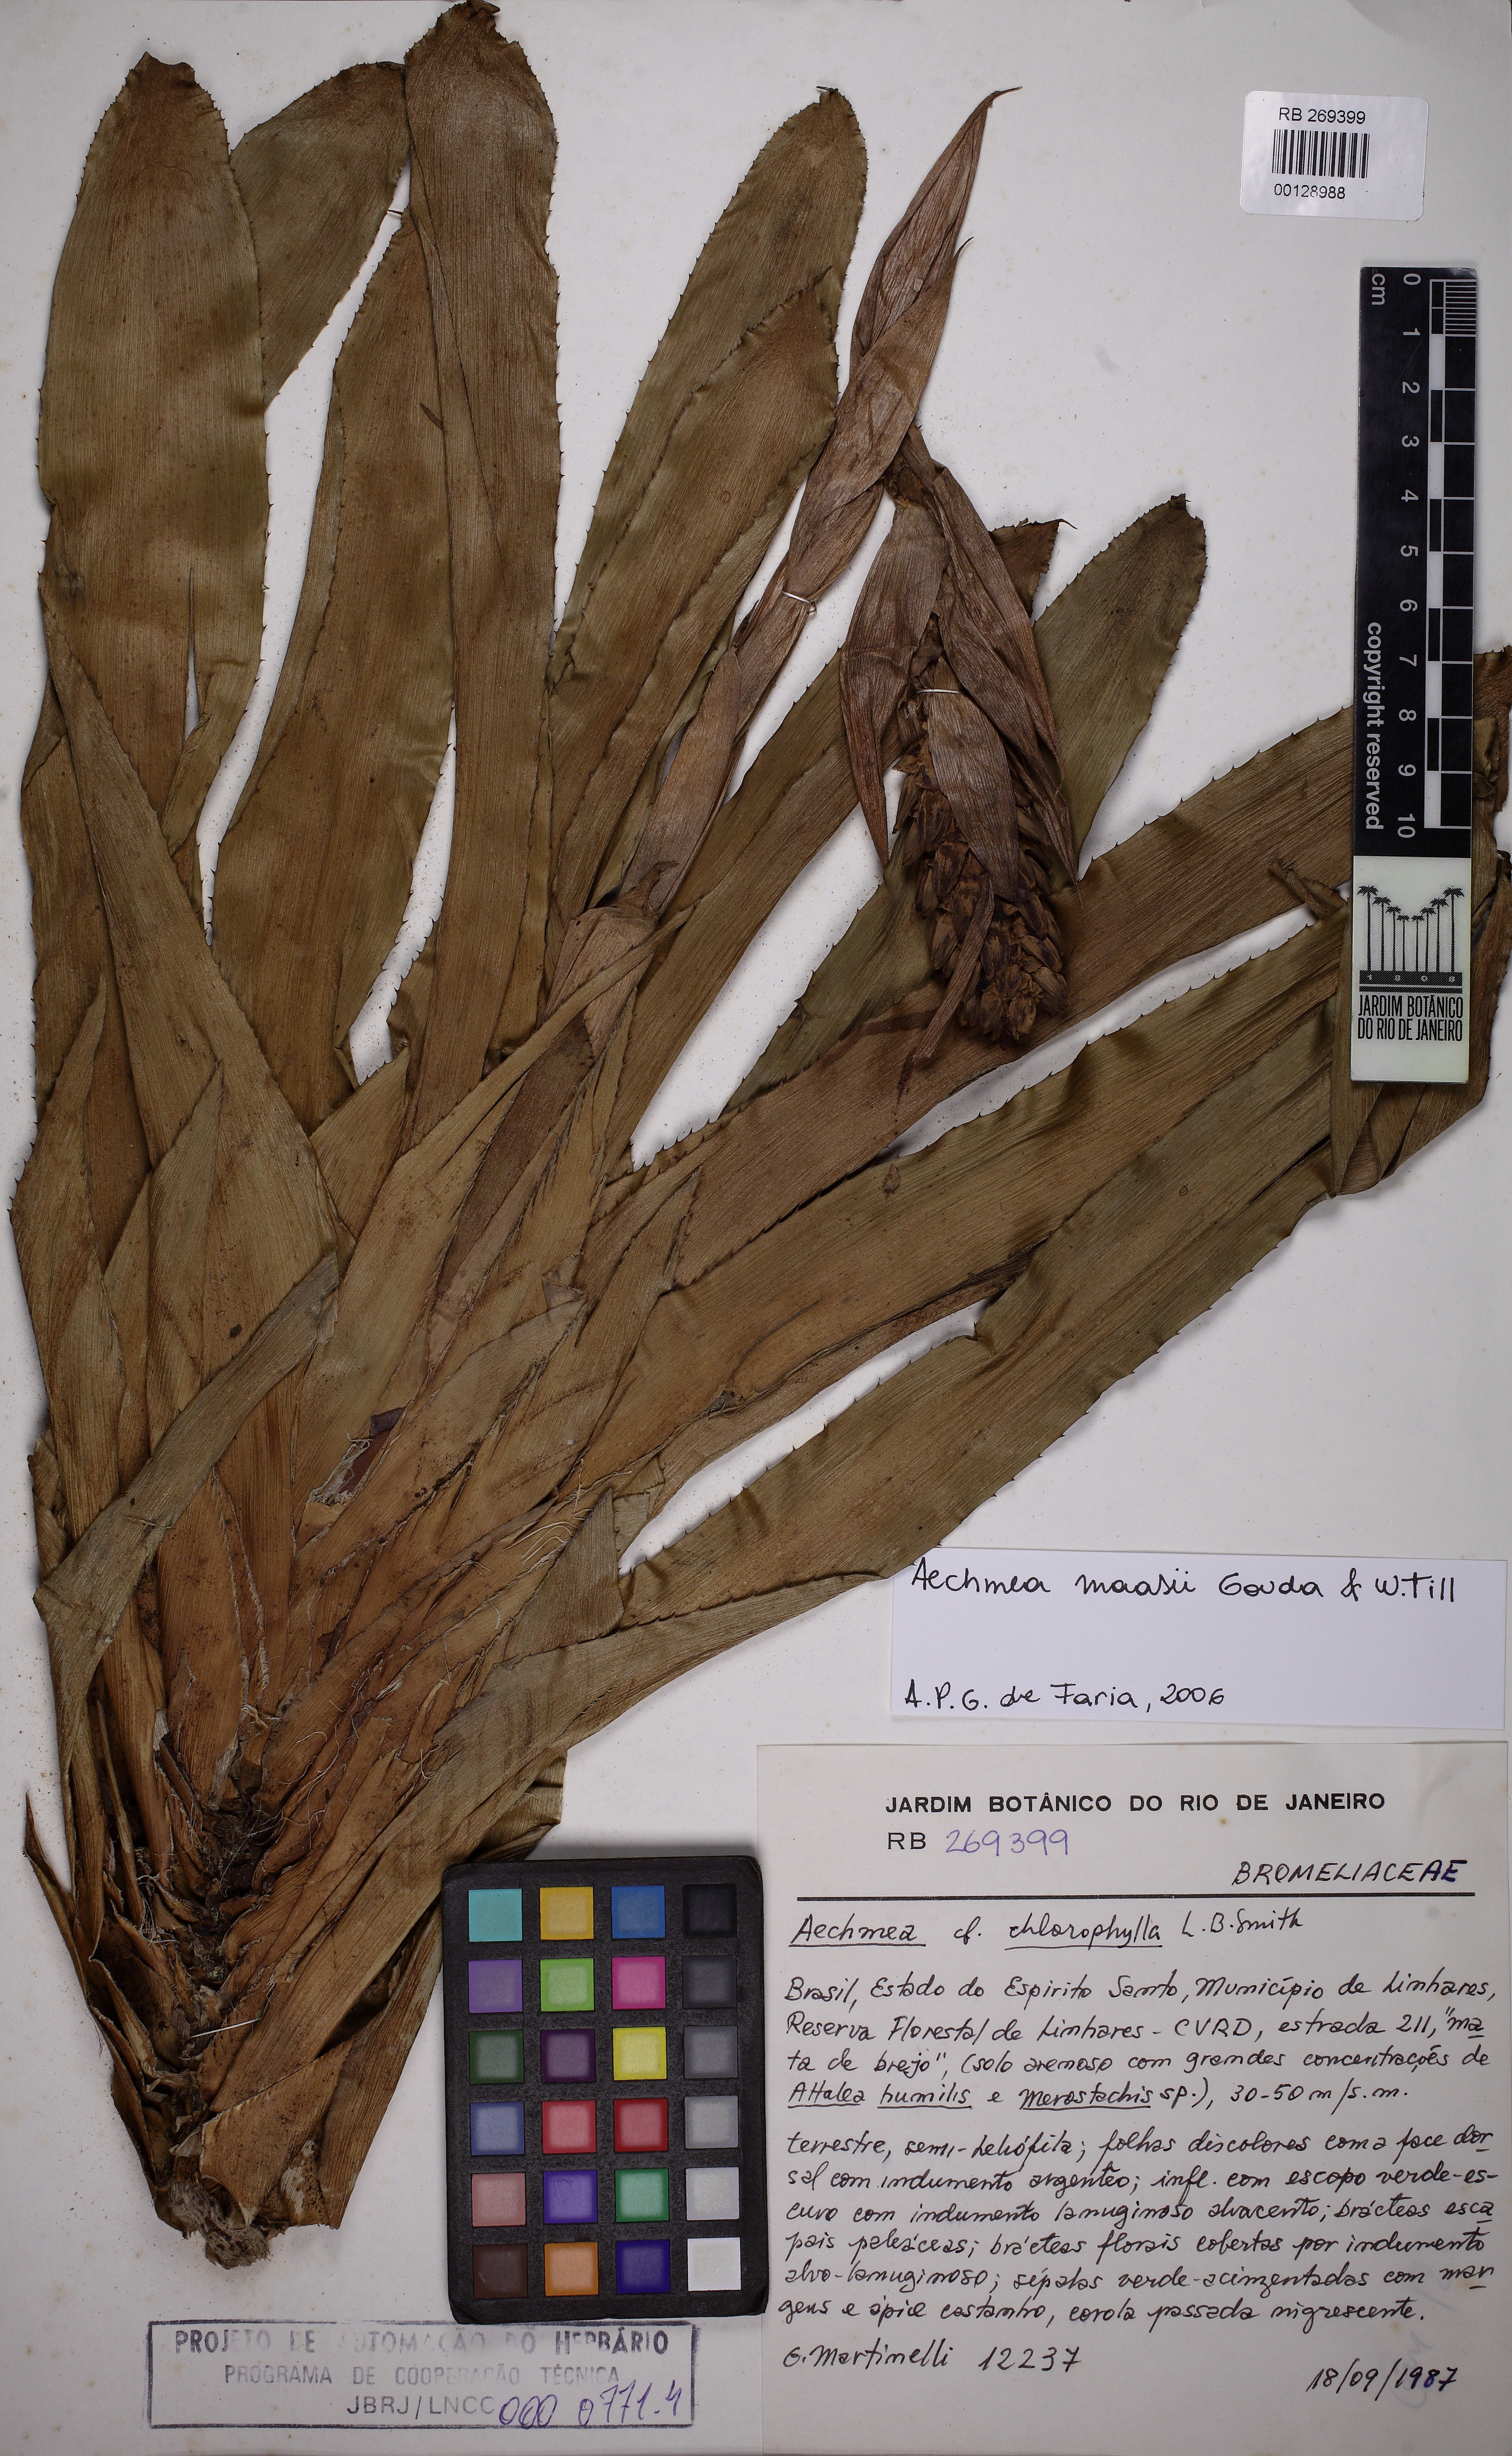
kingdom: Plantae
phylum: Tracheophyta
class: Liliopsida
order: Poales
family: Bromeliaceae
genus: Aechmea
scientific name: Aechmea maasii
